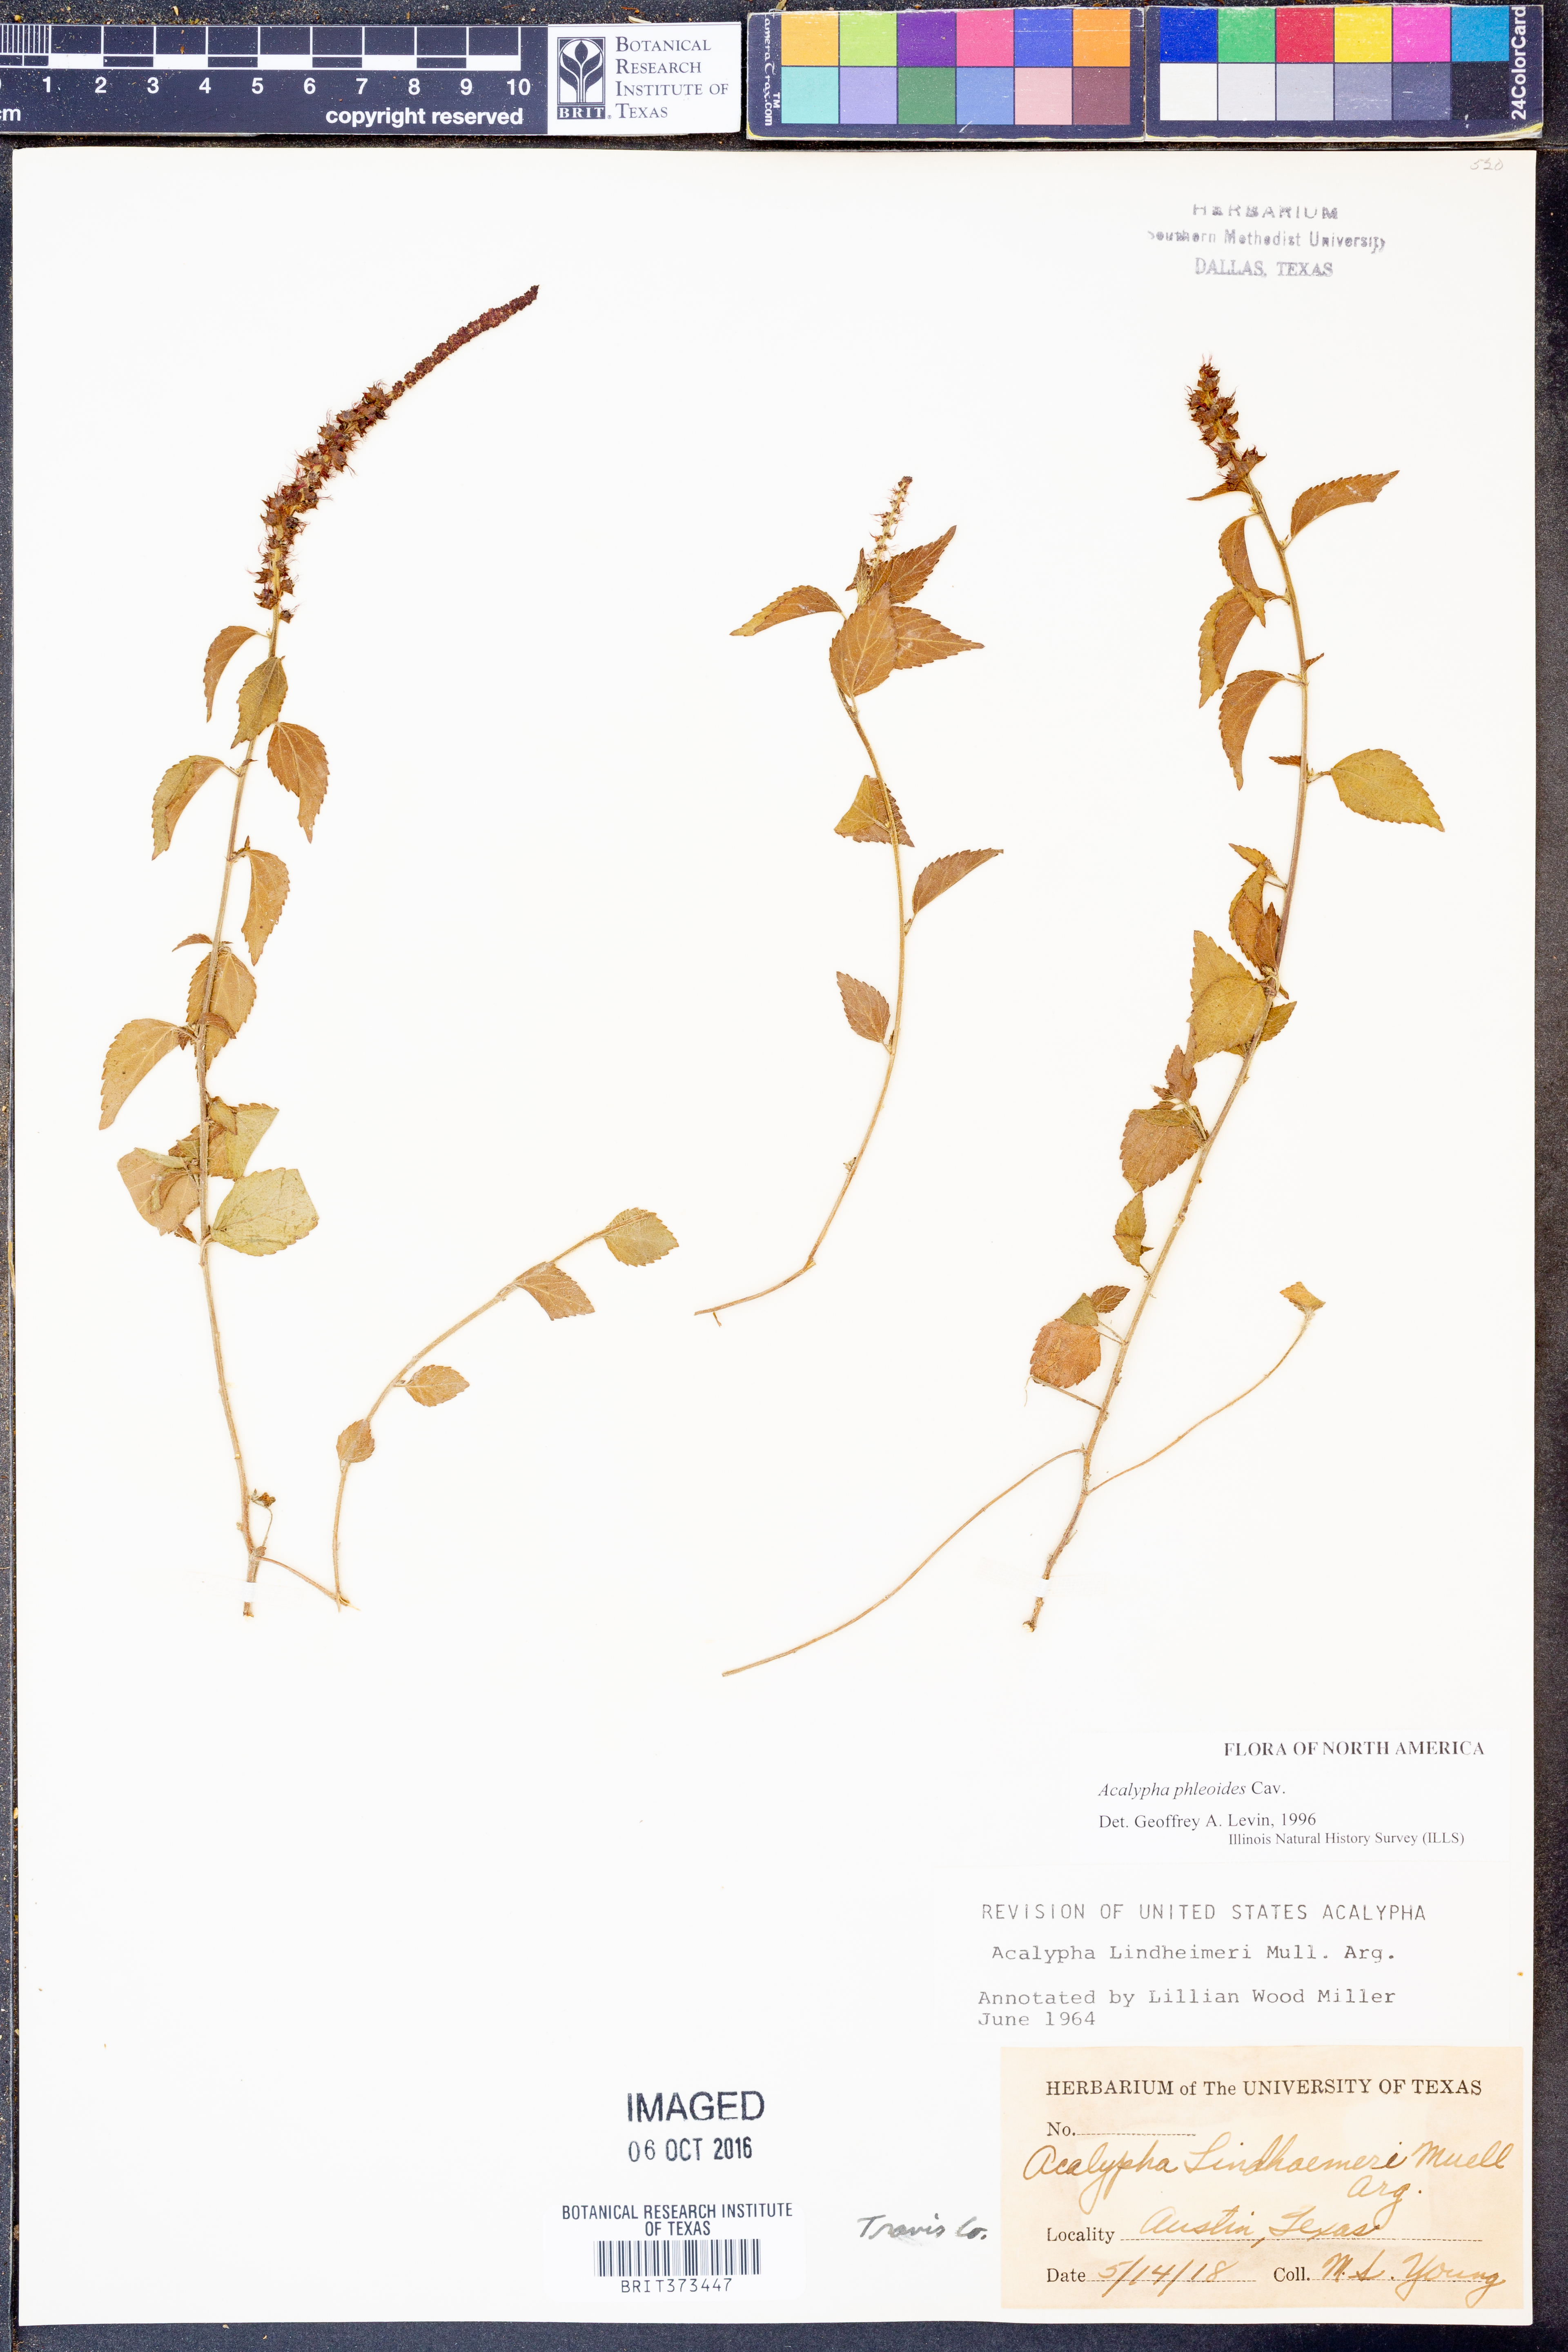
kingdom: Plantae
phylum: Tracheophyta
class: Magnoliopsida
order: Malpighiales
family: Euphorbiaceae
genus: Acalypha
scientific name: Acalypha phleoides
